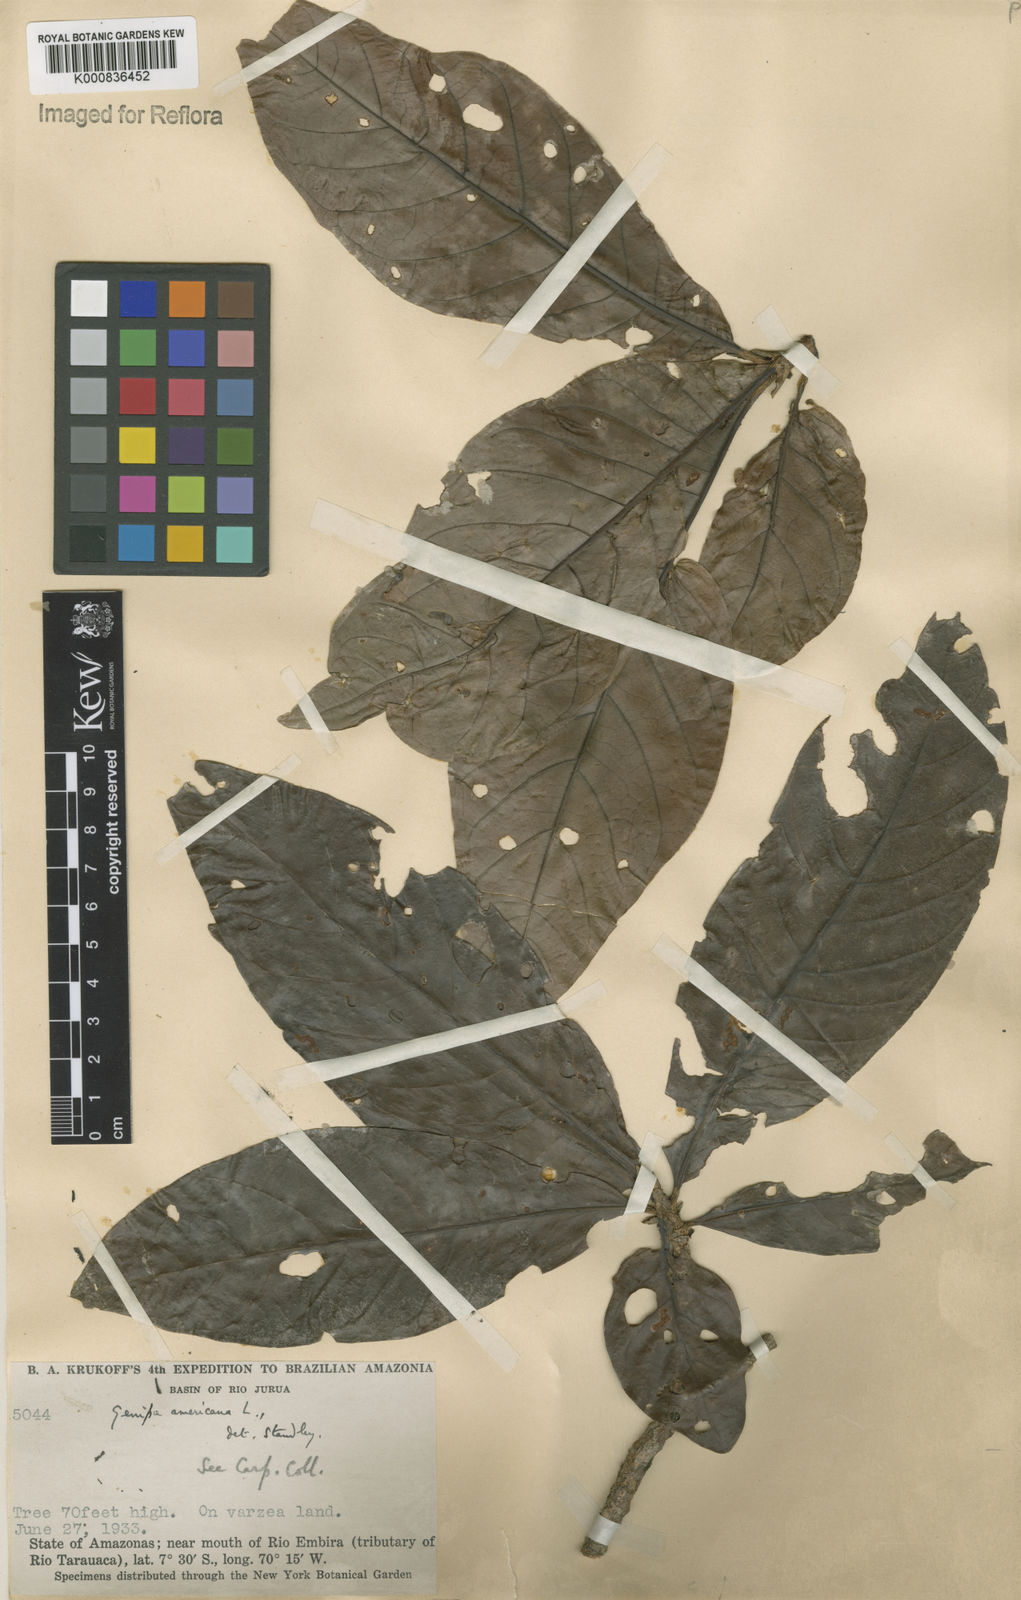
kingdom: Plantae
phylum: Tracheophyta
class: Magnoliopsida
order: Gentianales
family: Rubiaceae
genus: Genipa
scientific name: Genipa americana
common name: Genipap
